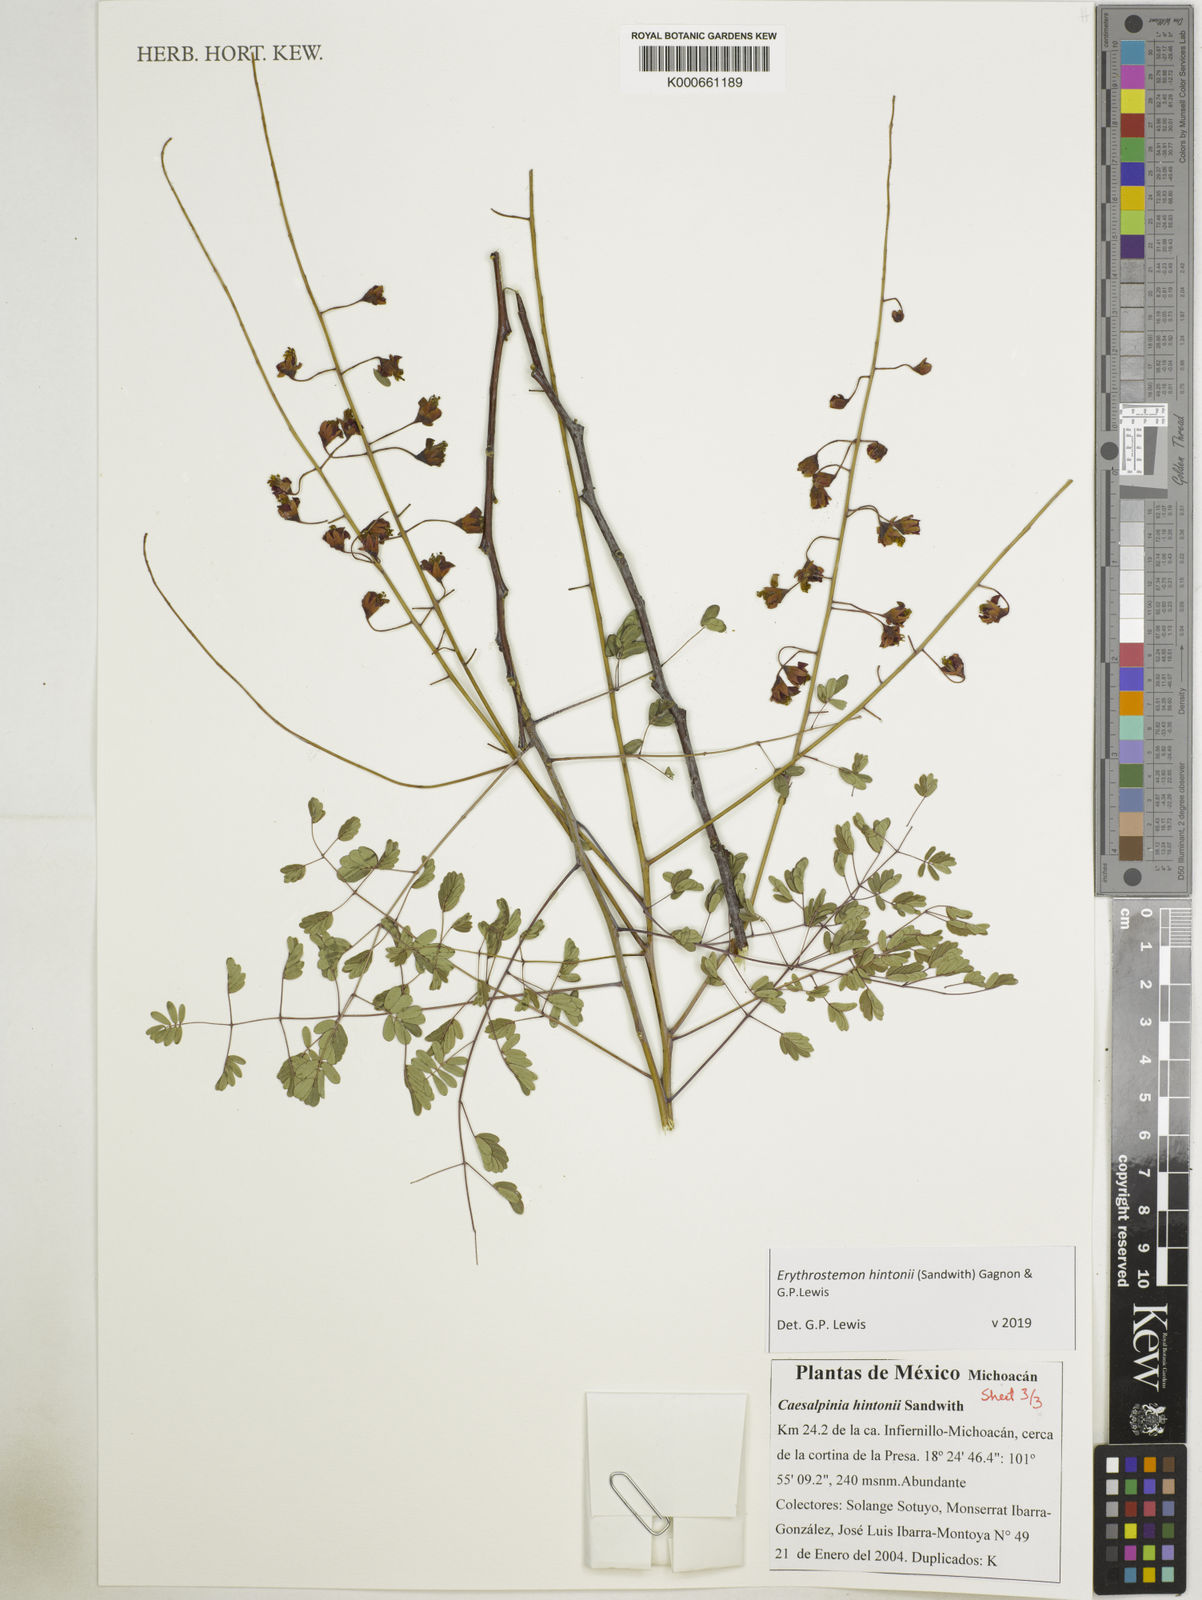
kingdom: Plantae
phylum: Tracheophyta
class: Magnoliopsida
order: Fabales
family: Fabaceae
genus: Erythrostemon
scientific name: Erythrostemon hintonii
